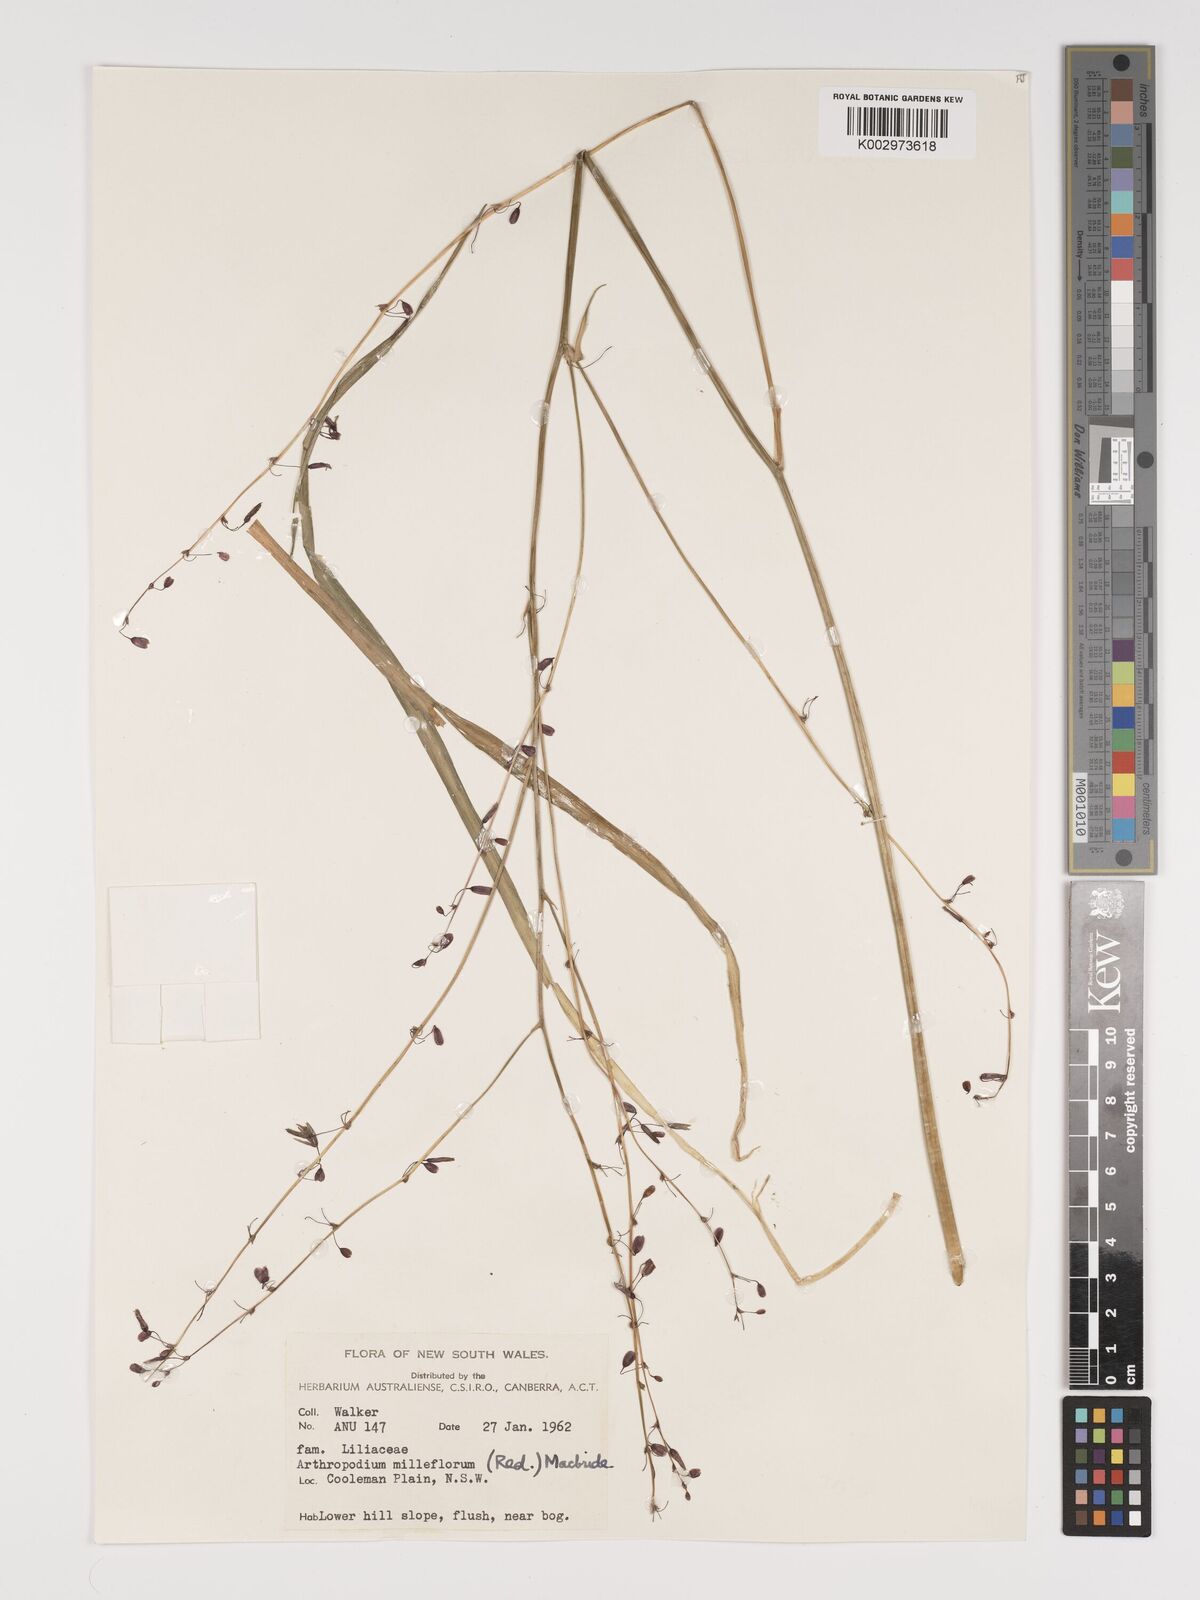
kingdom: Plantae
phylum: Tracheophyta
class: Liliopsida
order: Asparagales
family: Asparagaceae
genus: Arthropodium
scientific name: Arthropodium milleflorum
